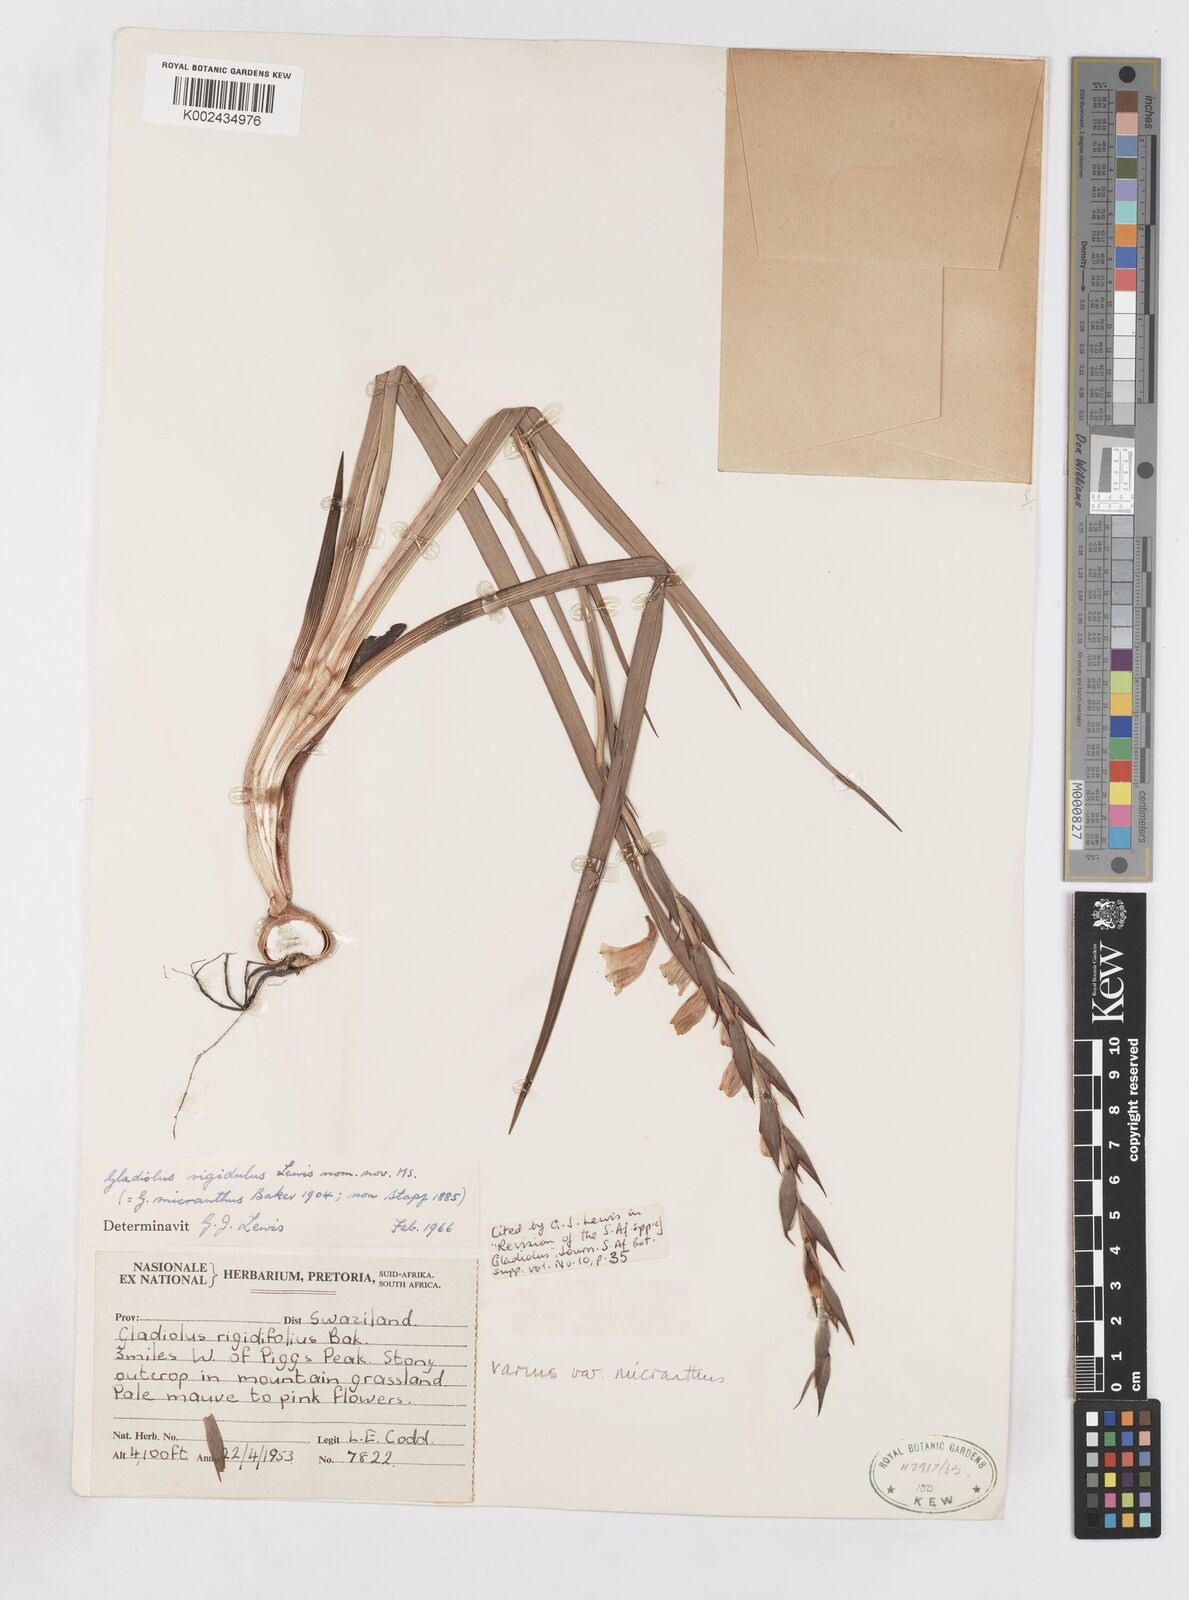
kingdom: Plantae
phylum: Tracheophyta
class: Liliopsida
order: Asparagales
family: Iridaceae
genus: Gladiolus
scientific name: Gladiolus ferrugineus
